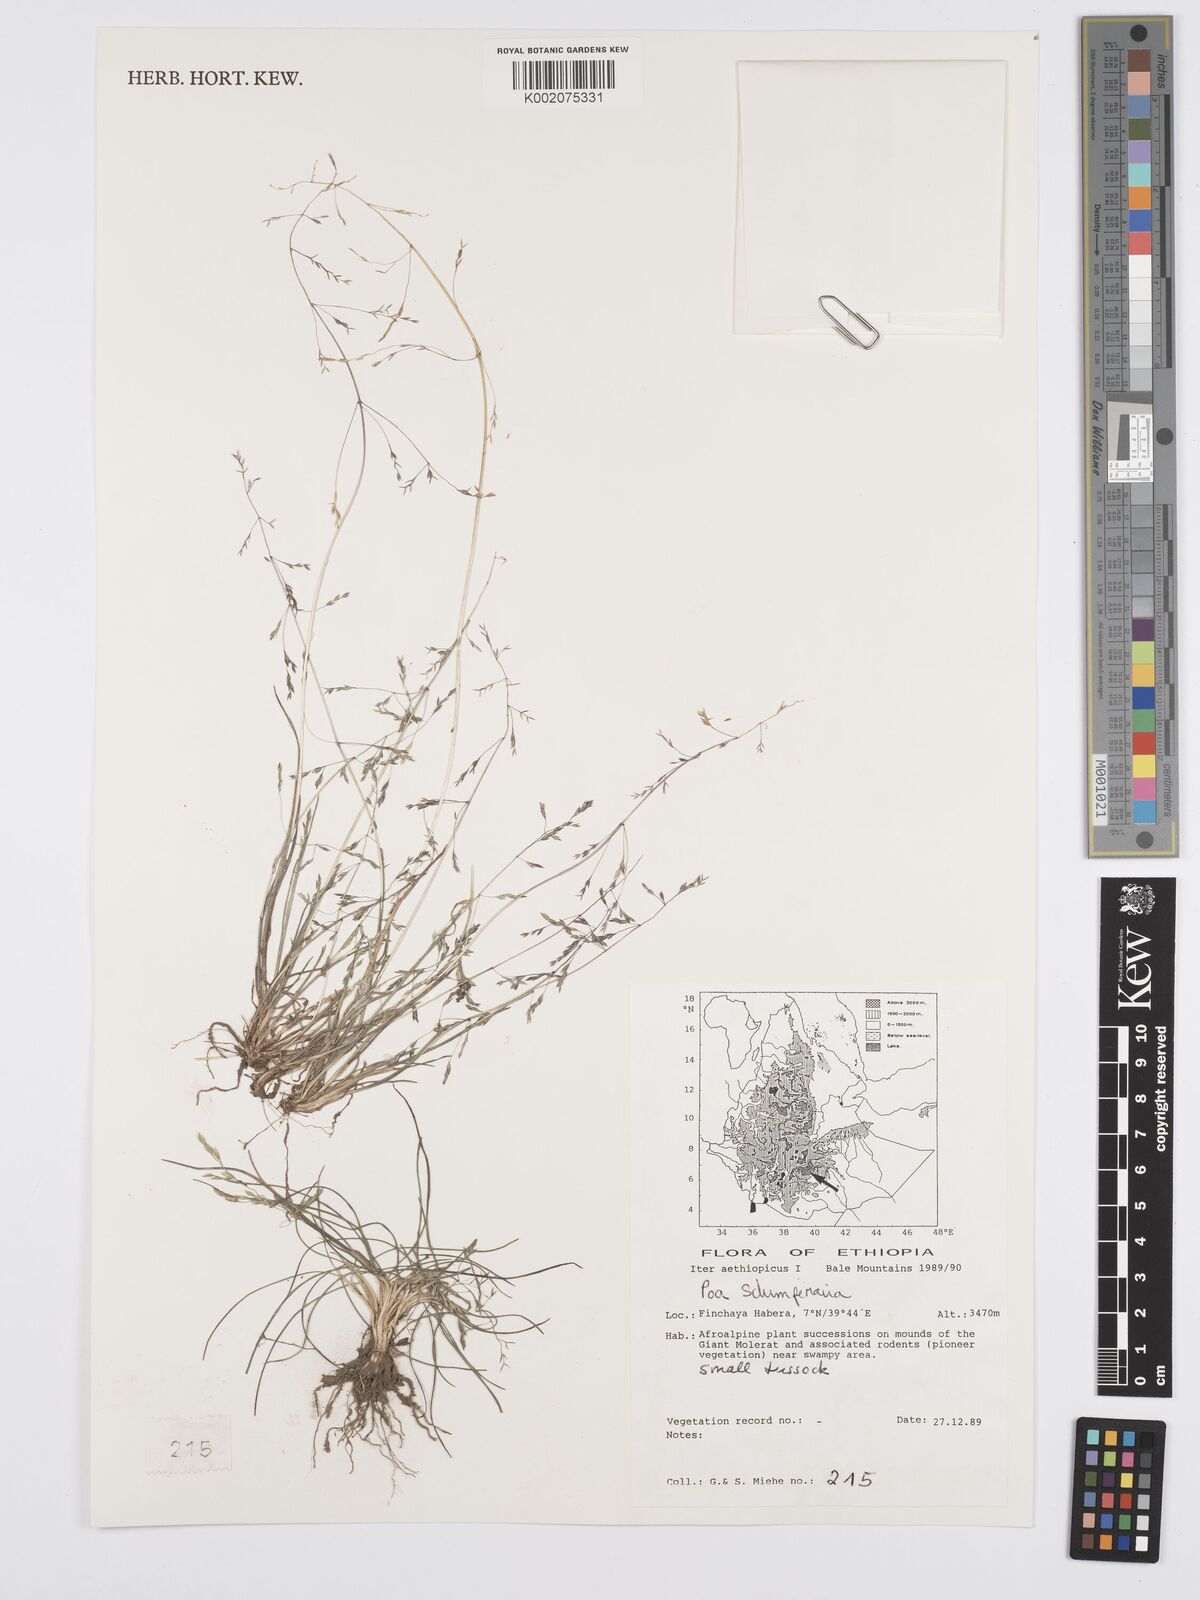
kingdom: Plantae
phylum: Tracheophyta
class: Liliopsida
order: Poales
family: Poaceae
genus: Poa
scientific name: Poa schimperiana
